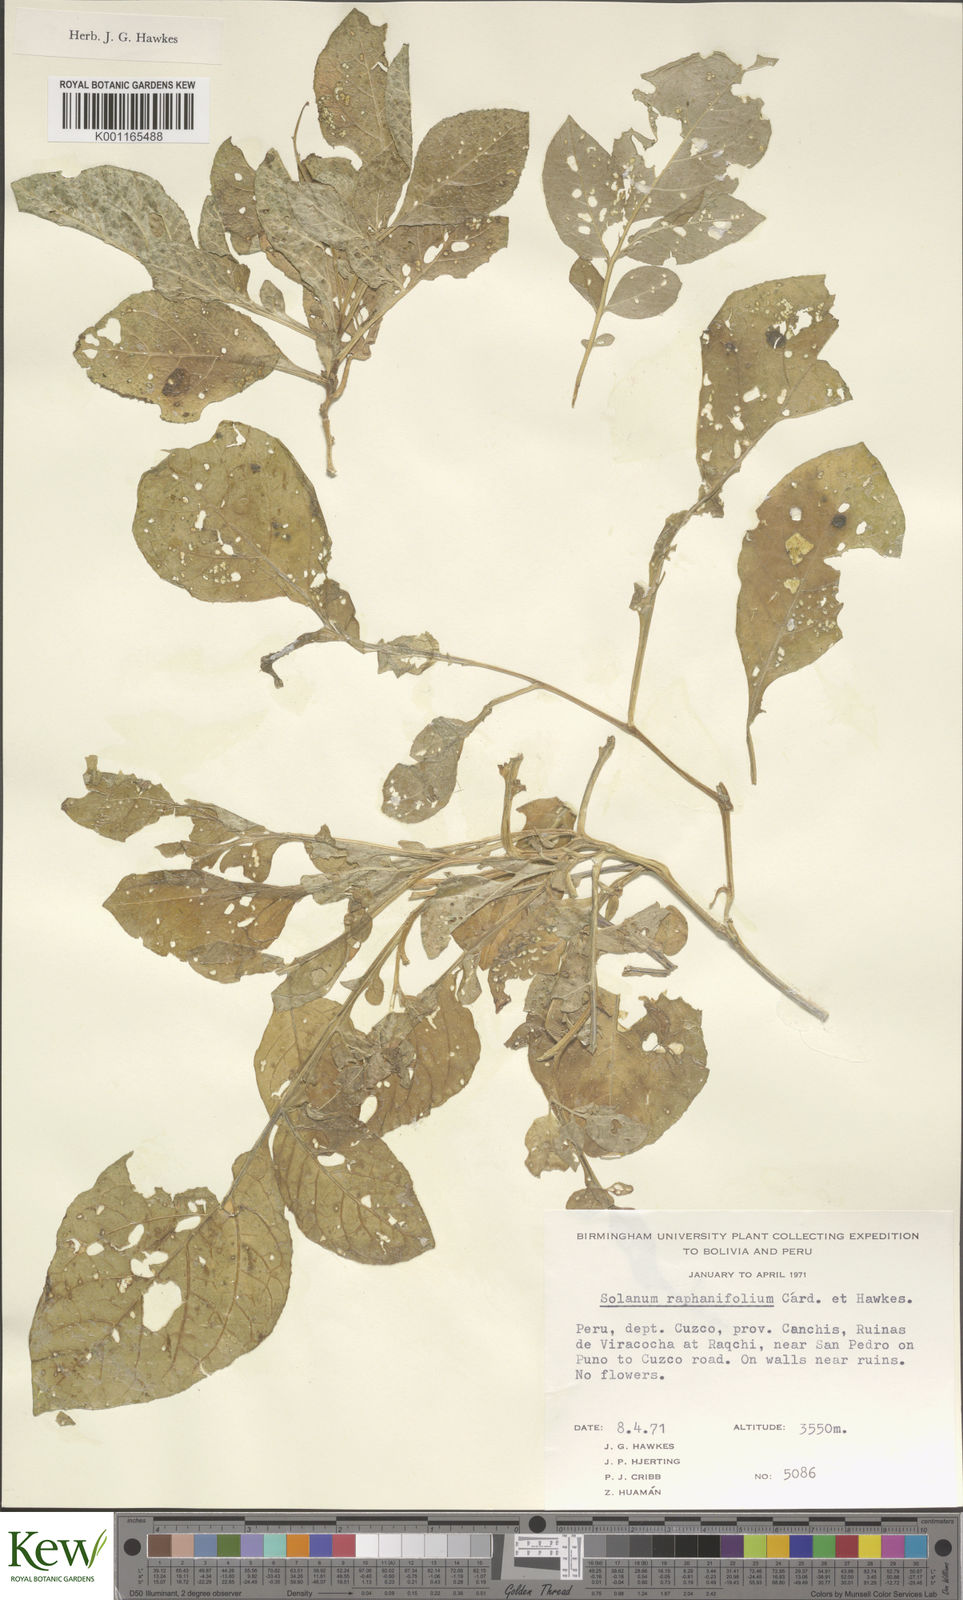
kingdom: Plantae
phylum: Tracheophyta
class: Magnoliopsida
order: Solanales
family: Solanaceae
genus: Solanum
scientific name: Solanum raphanifolium
